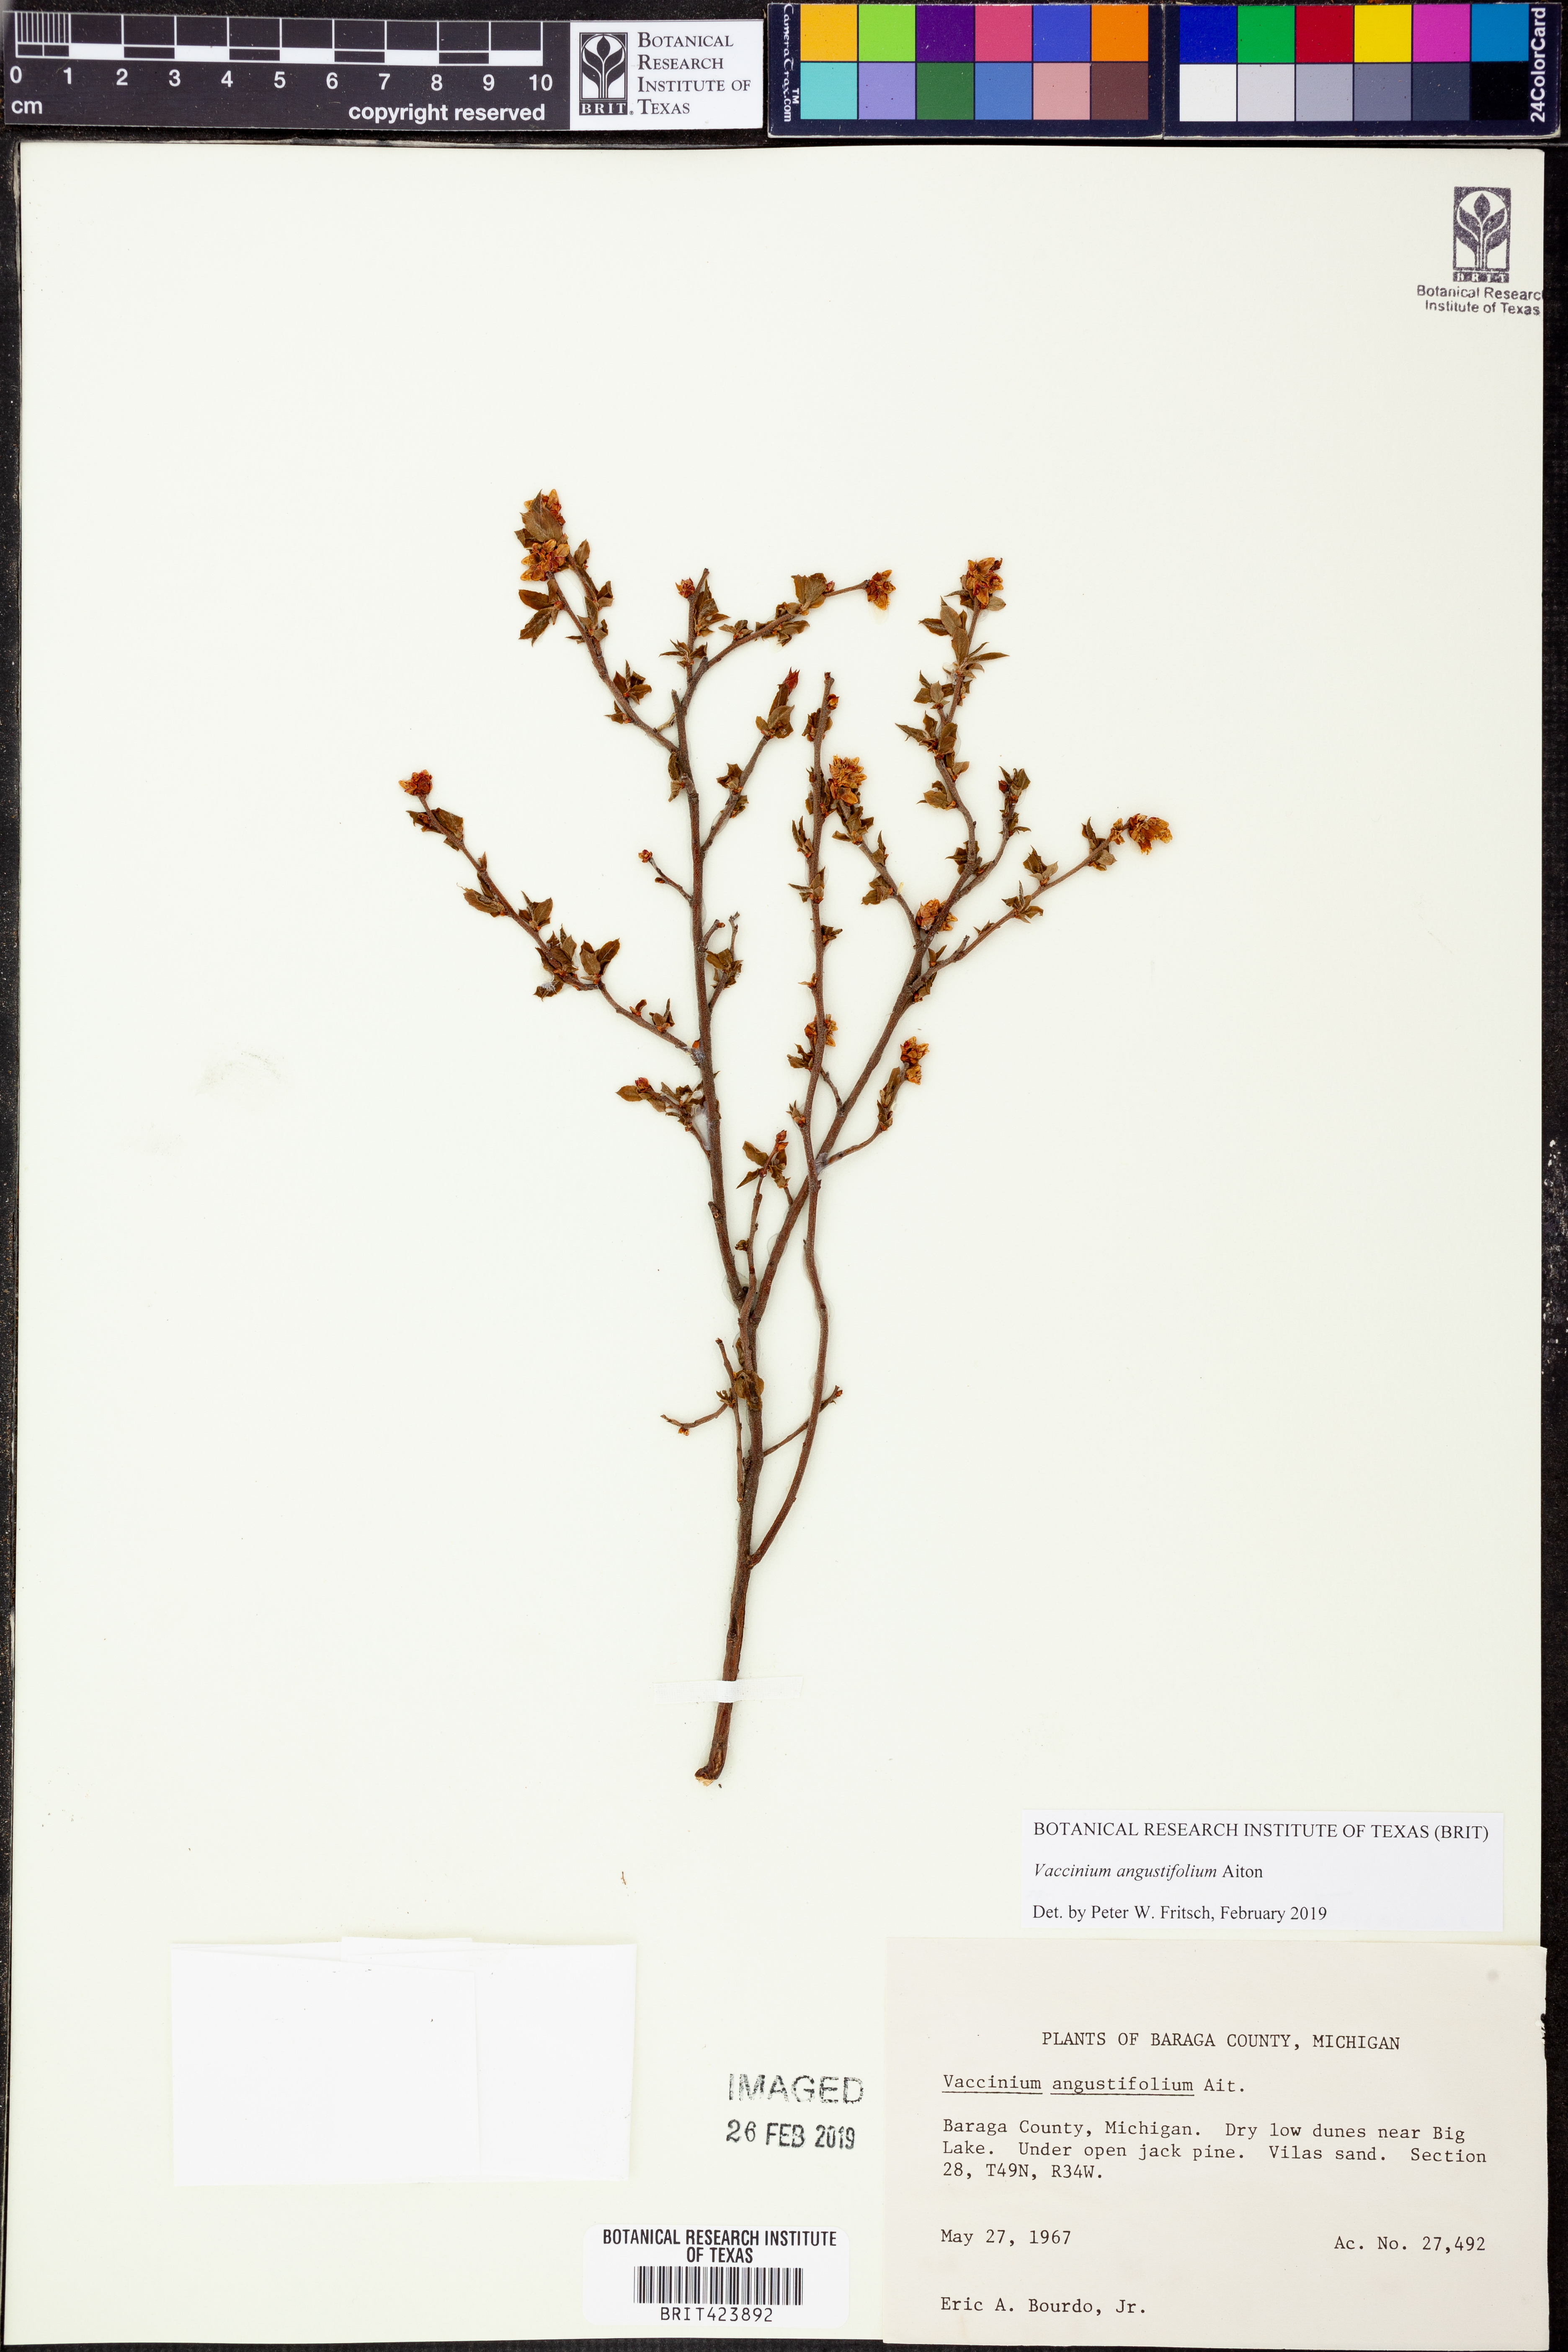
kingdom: Plantae
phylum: Tracheophyta
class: Magnoliopsida
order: Ericales
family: Ericaceae
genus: Vaccinium
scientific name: Vaccinium angustifolium
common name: Early lowbush blueberry
